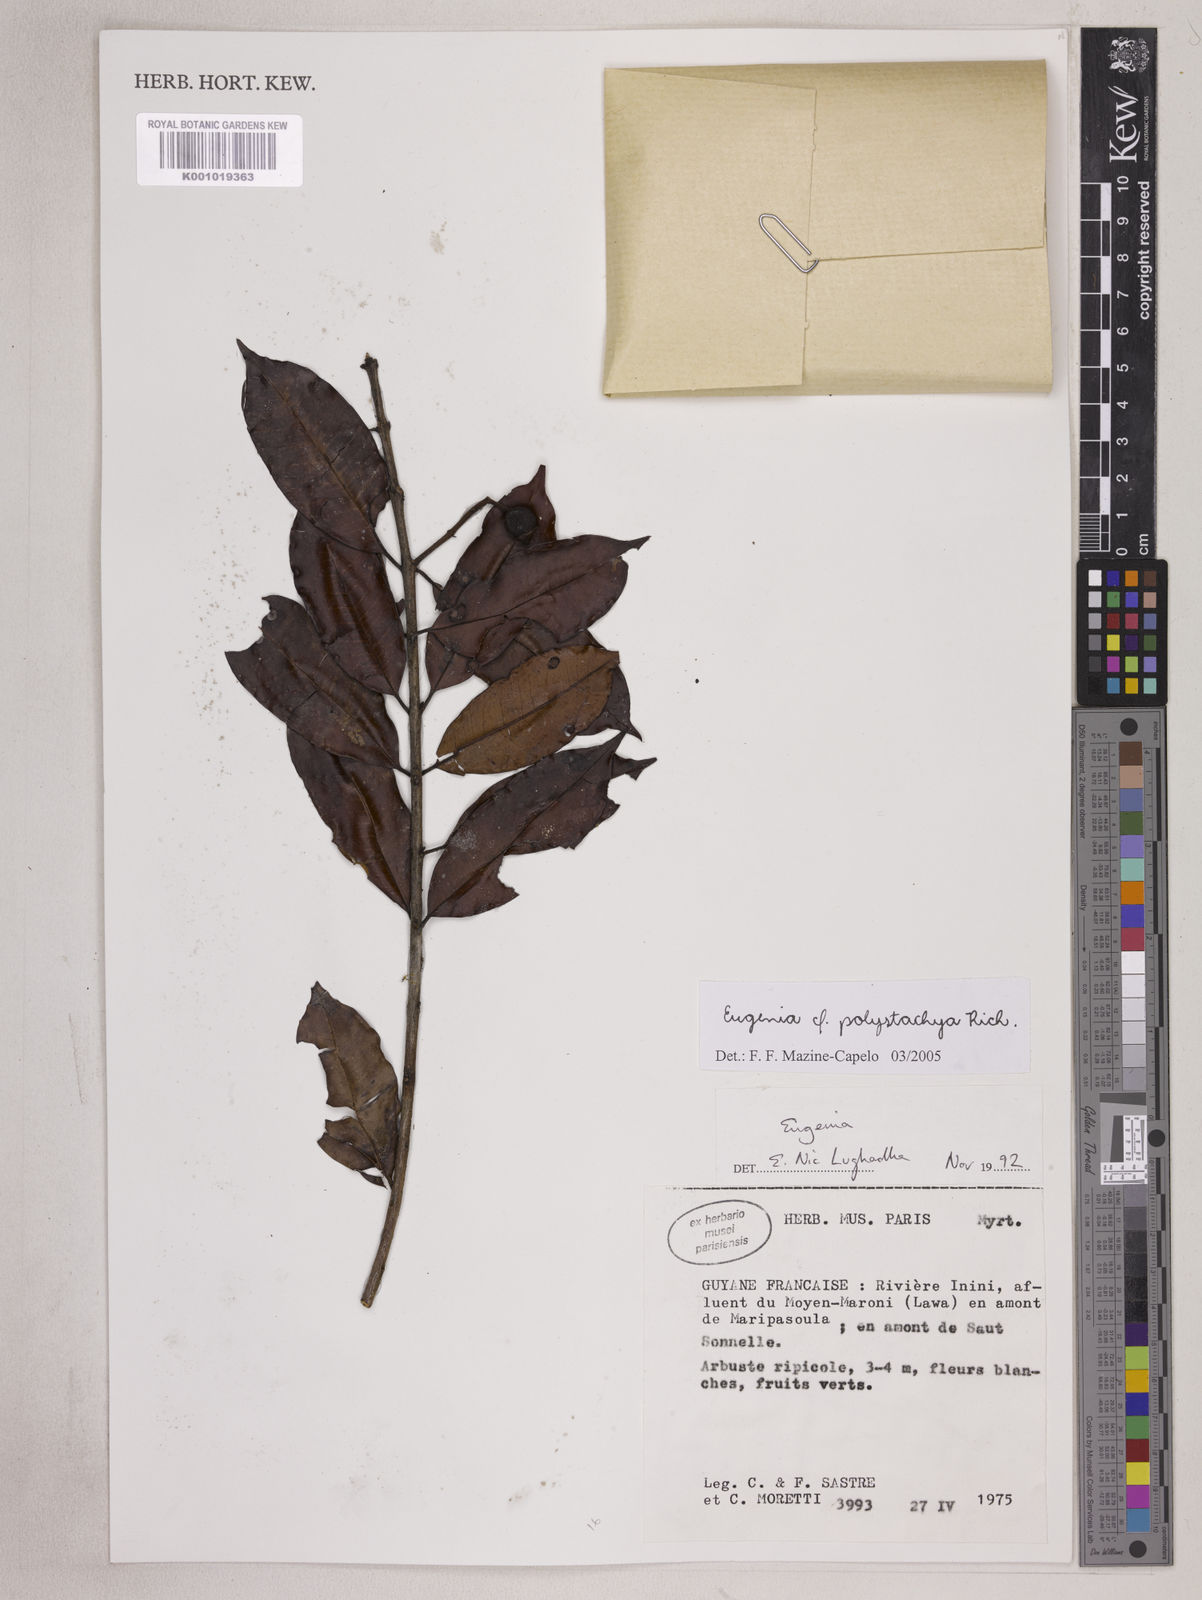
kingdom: Plantae
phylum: Tracheophyta
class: Magnoliopsida
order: Myrtales
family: Myrtaceae
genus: Eugenia
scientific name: Eugenia polystachya
